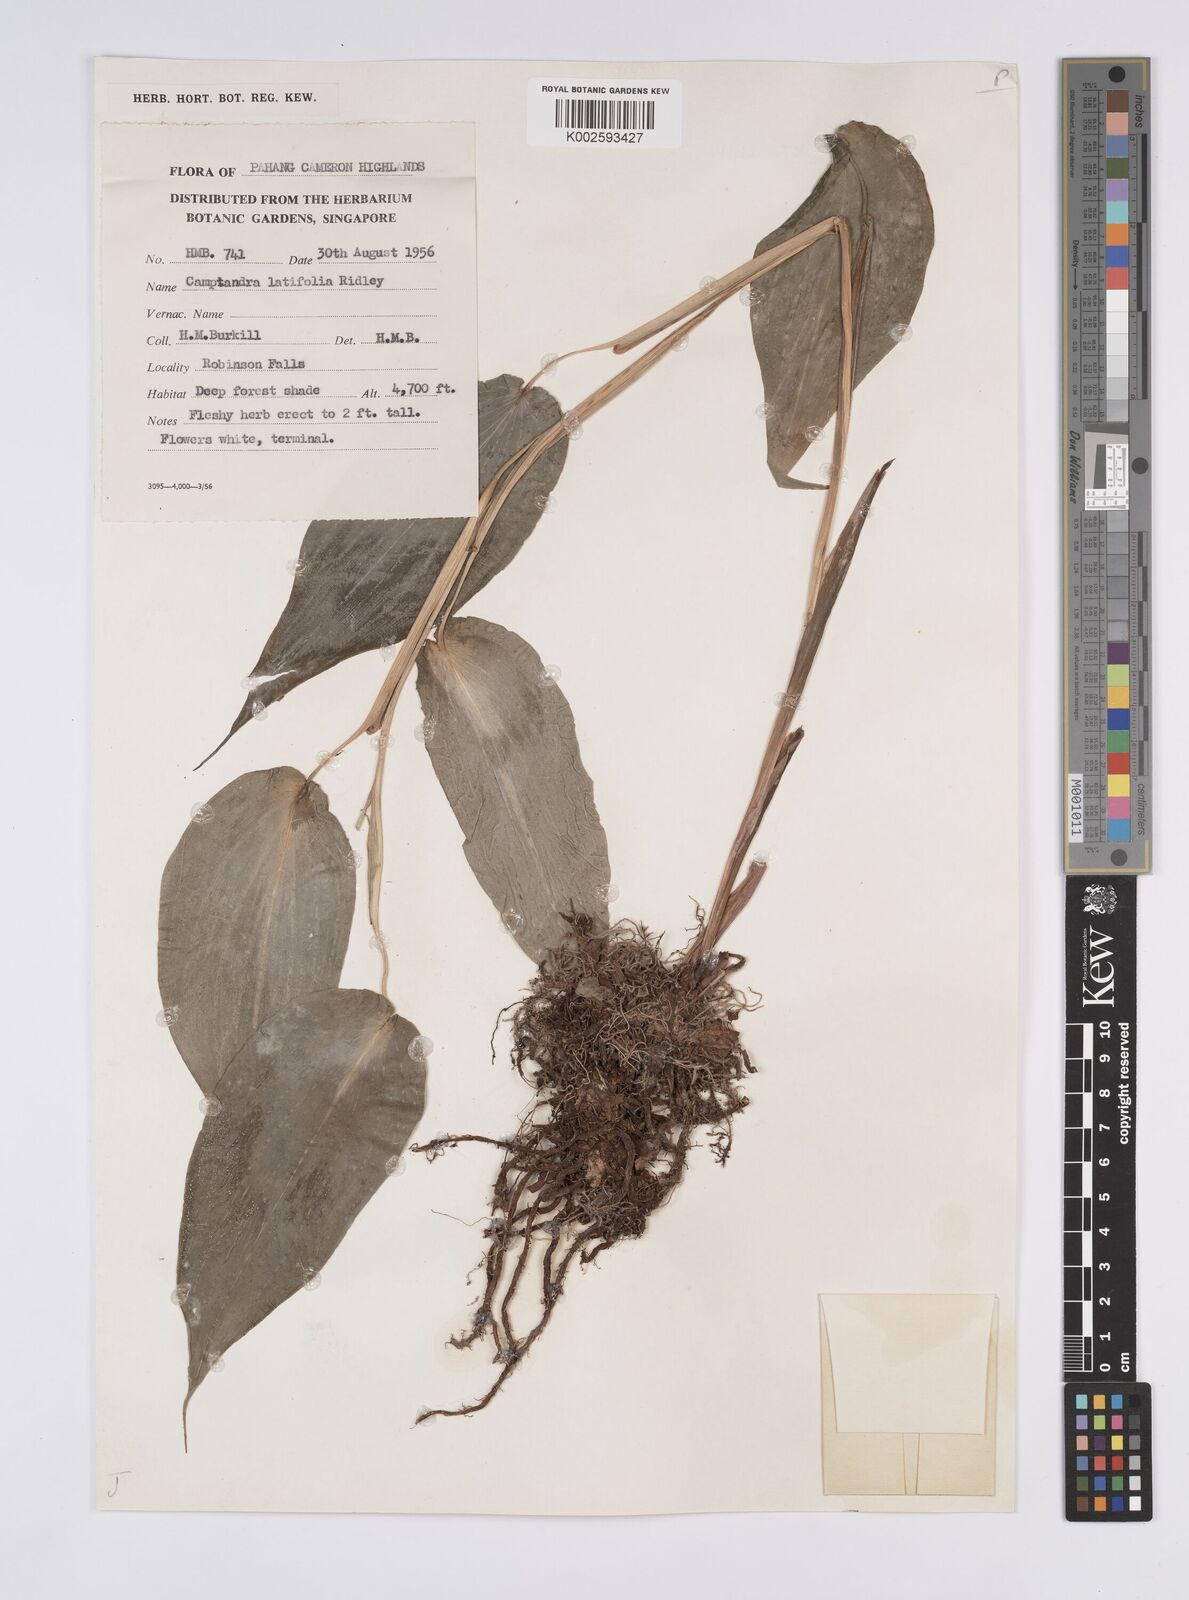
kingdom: Plantae
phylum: Tracheophyta
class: Liliopsida
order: Zingiberales
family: Zingiberaceae
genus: Camptandra
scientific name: Camptandra latifolia
